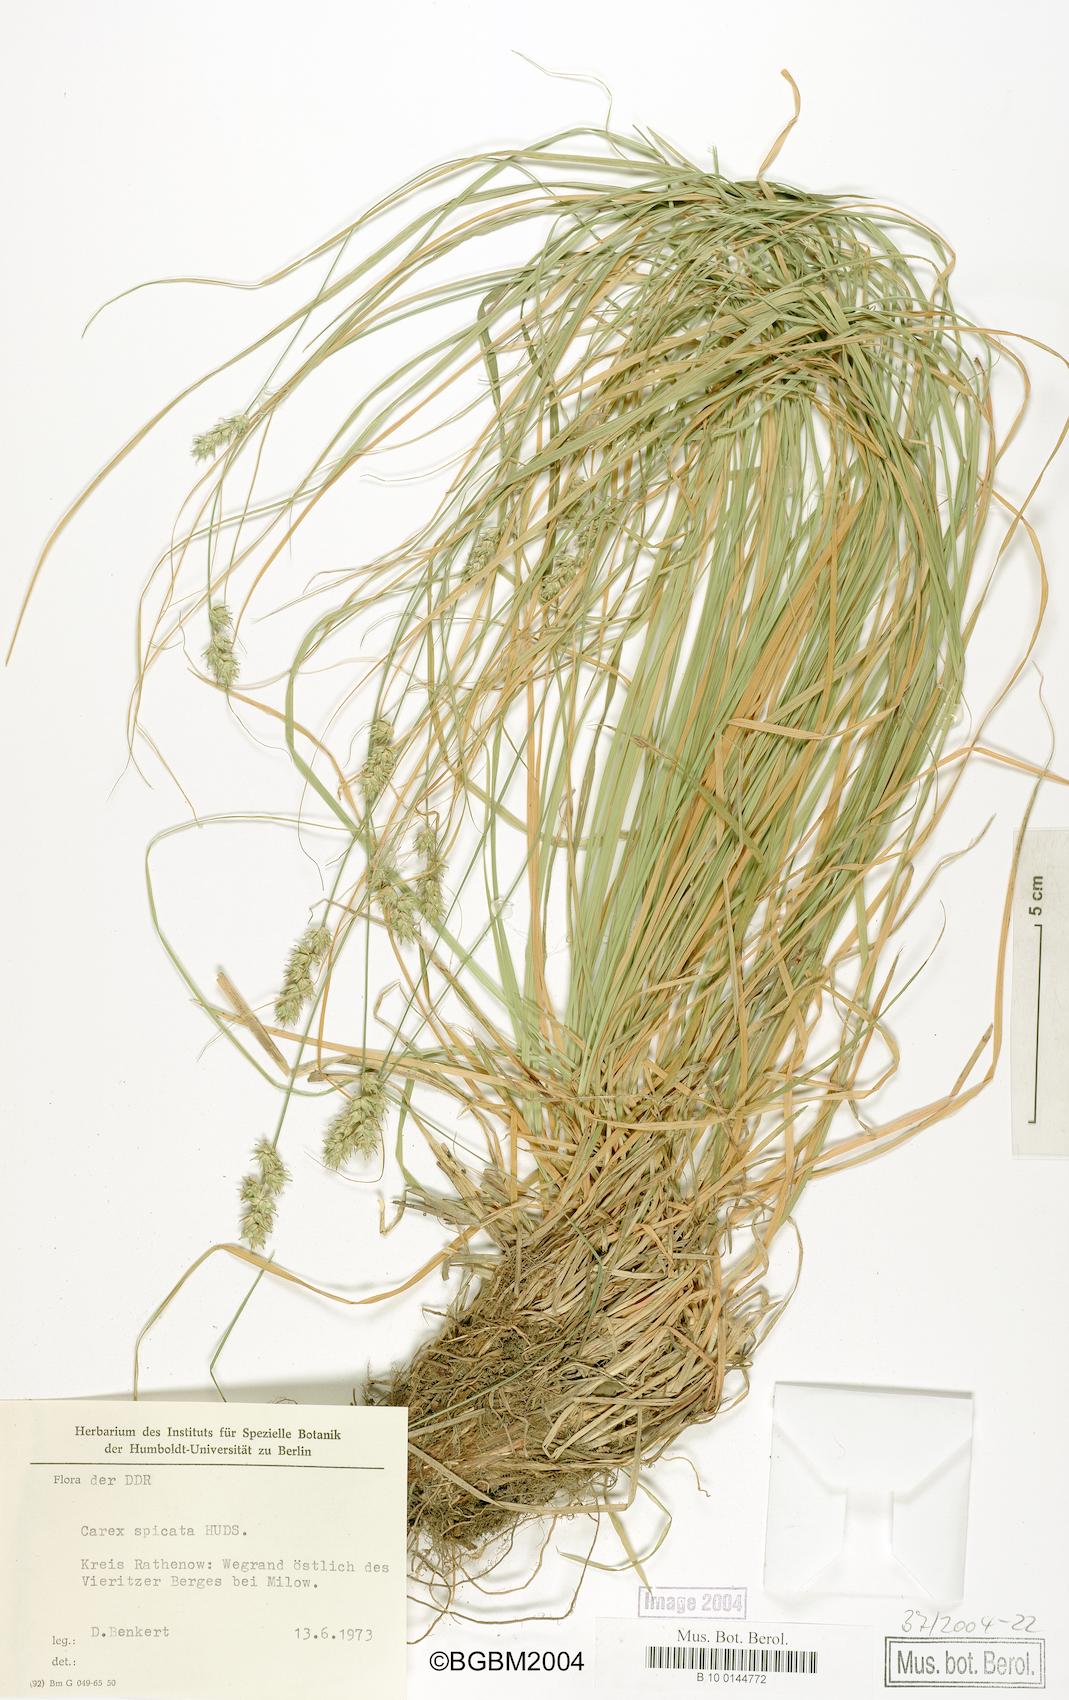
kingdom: Plantae
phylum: Tracheophyta
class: Liliopsida
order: Poales
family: Cyperaceae
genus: Carex
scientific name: Carex spicata
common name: Spiked sedge
